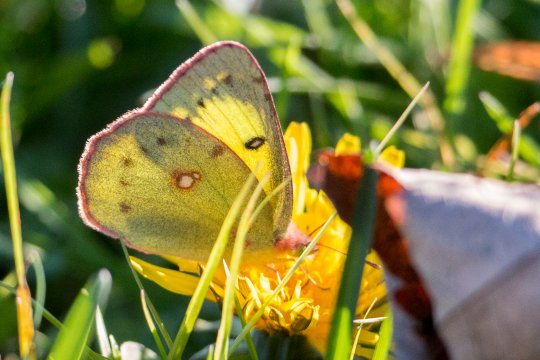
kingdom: Animalia
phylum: Arthropoda
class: Insecta
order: Lepidoptera
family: Pieridae
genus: Colias
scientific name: Colias philodice
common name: Clouded Sulphur
